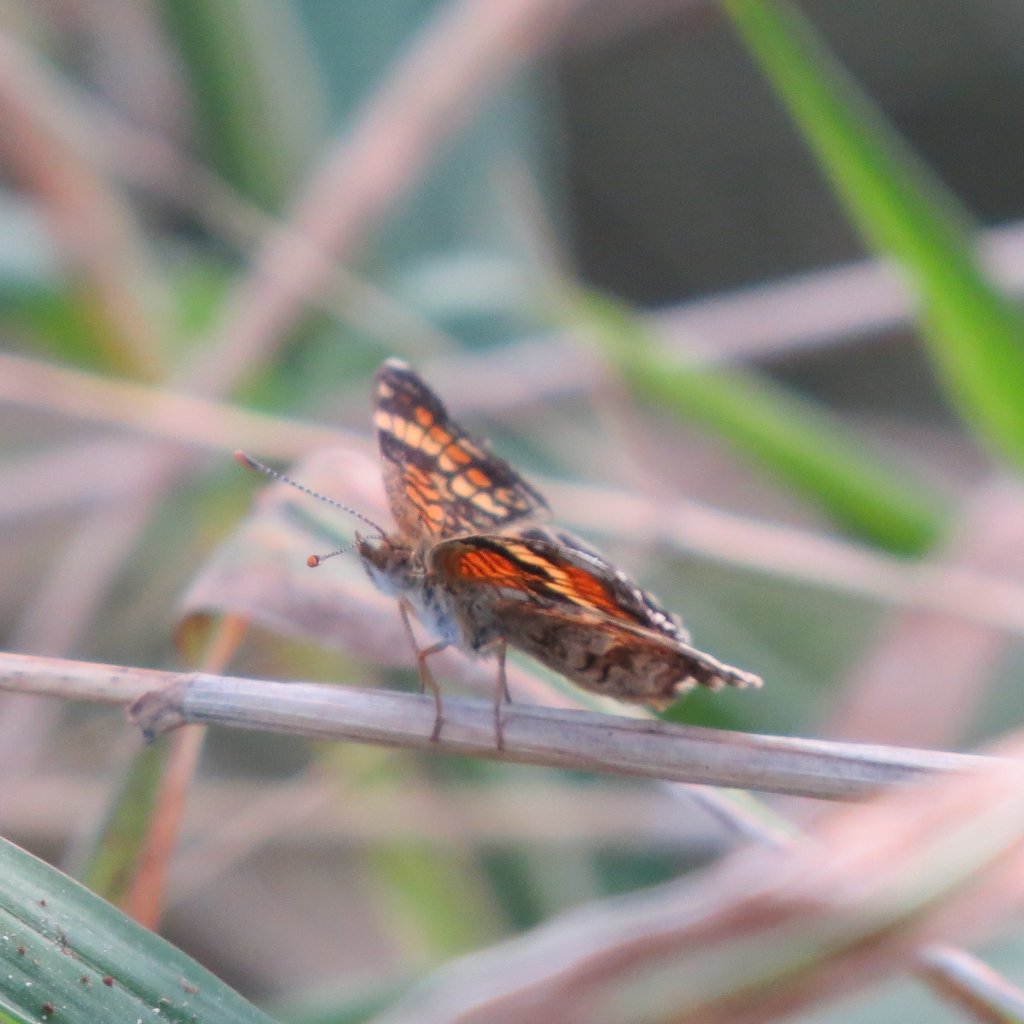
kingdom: Animalia
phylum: Arthropoda
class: Insecta
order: Lepidoptera
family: Nymphalidae
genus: Phyciodes
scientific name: Phyciodes phaon
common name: Phaon Crescent
